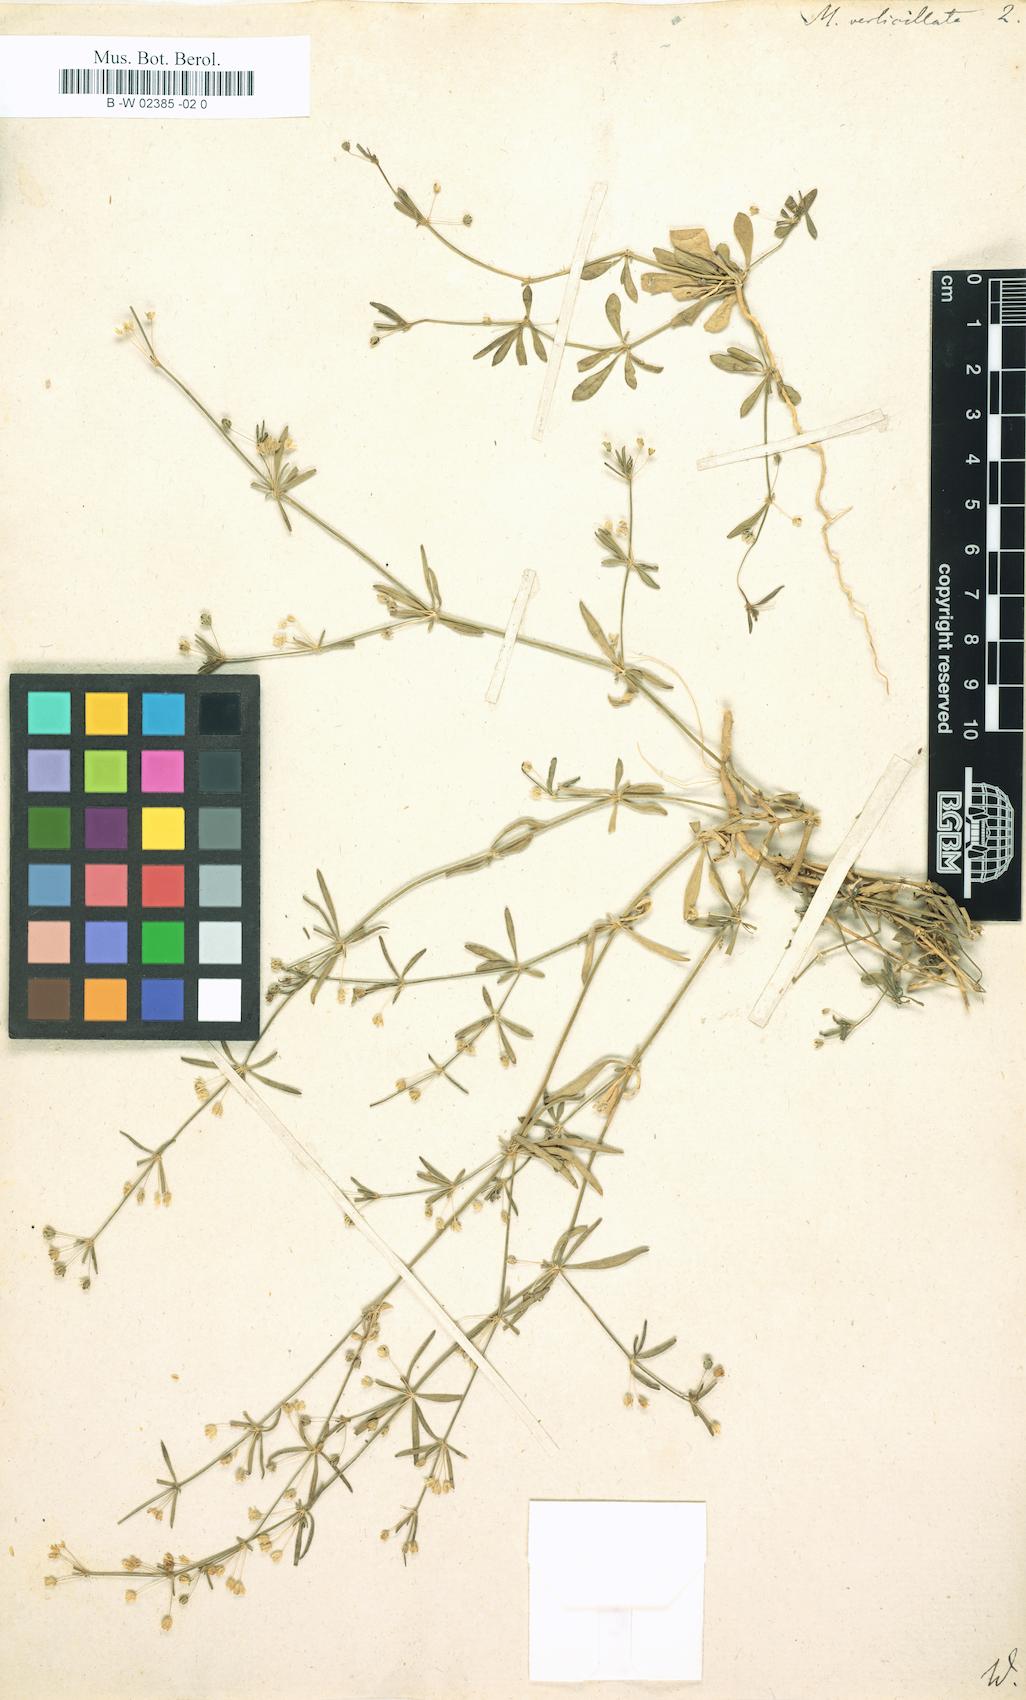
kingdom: Plantae
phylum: Tracheophyta
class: Magnoliopsida
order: Caryophyllales
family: Molluginaceae
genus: Mollugo
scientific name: Mollugo verticillata
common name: Green carpetweed
